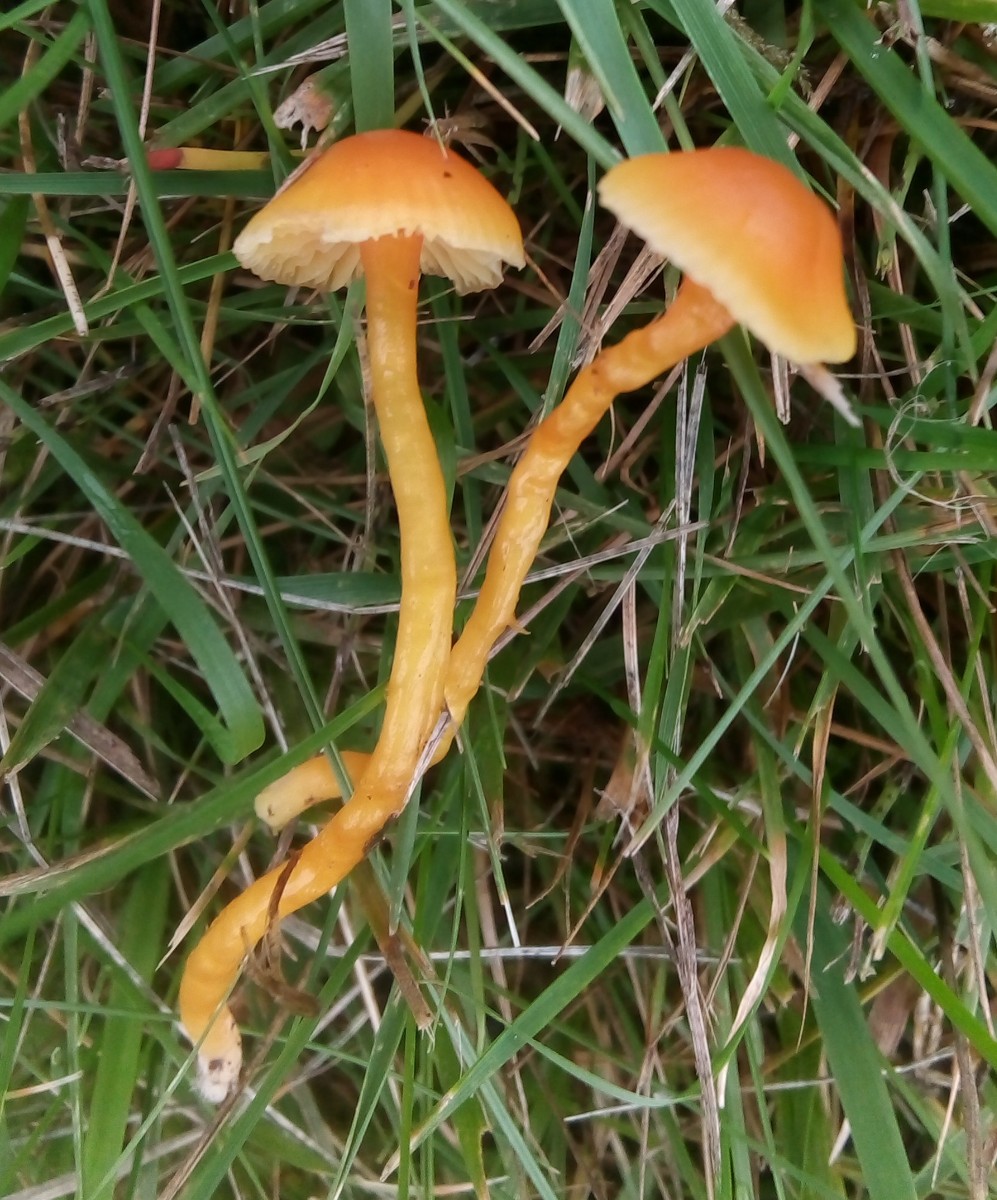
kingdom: Fungi
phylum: Basidiomycota
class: Agaricomycetes
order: Agaricales
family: Hygrophoraceae
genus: Hygrocybe
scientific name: Hygrocybe mucronella
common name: bitter vokshat
